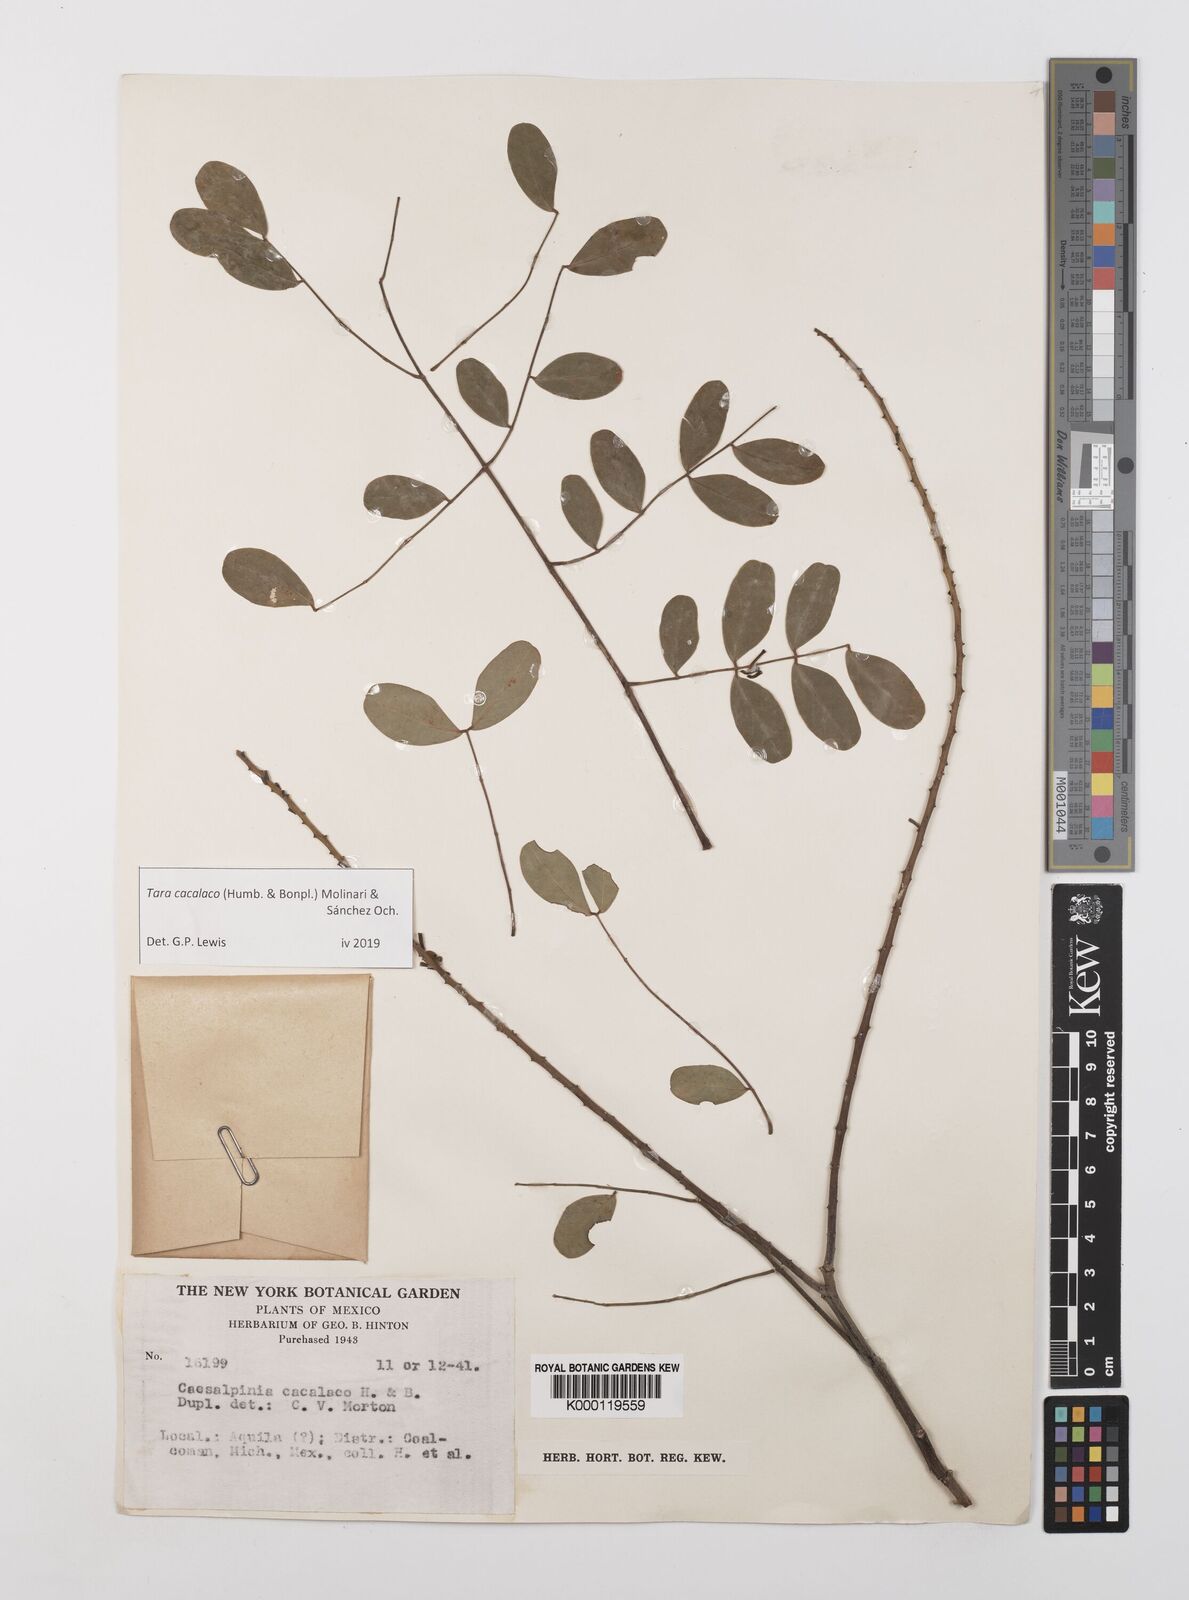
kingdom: Plantae
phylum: Tracheophyta
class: Magnoliopsida
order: Fabales
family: Fabaceae
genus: Tara
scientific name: Tara cacalaco
